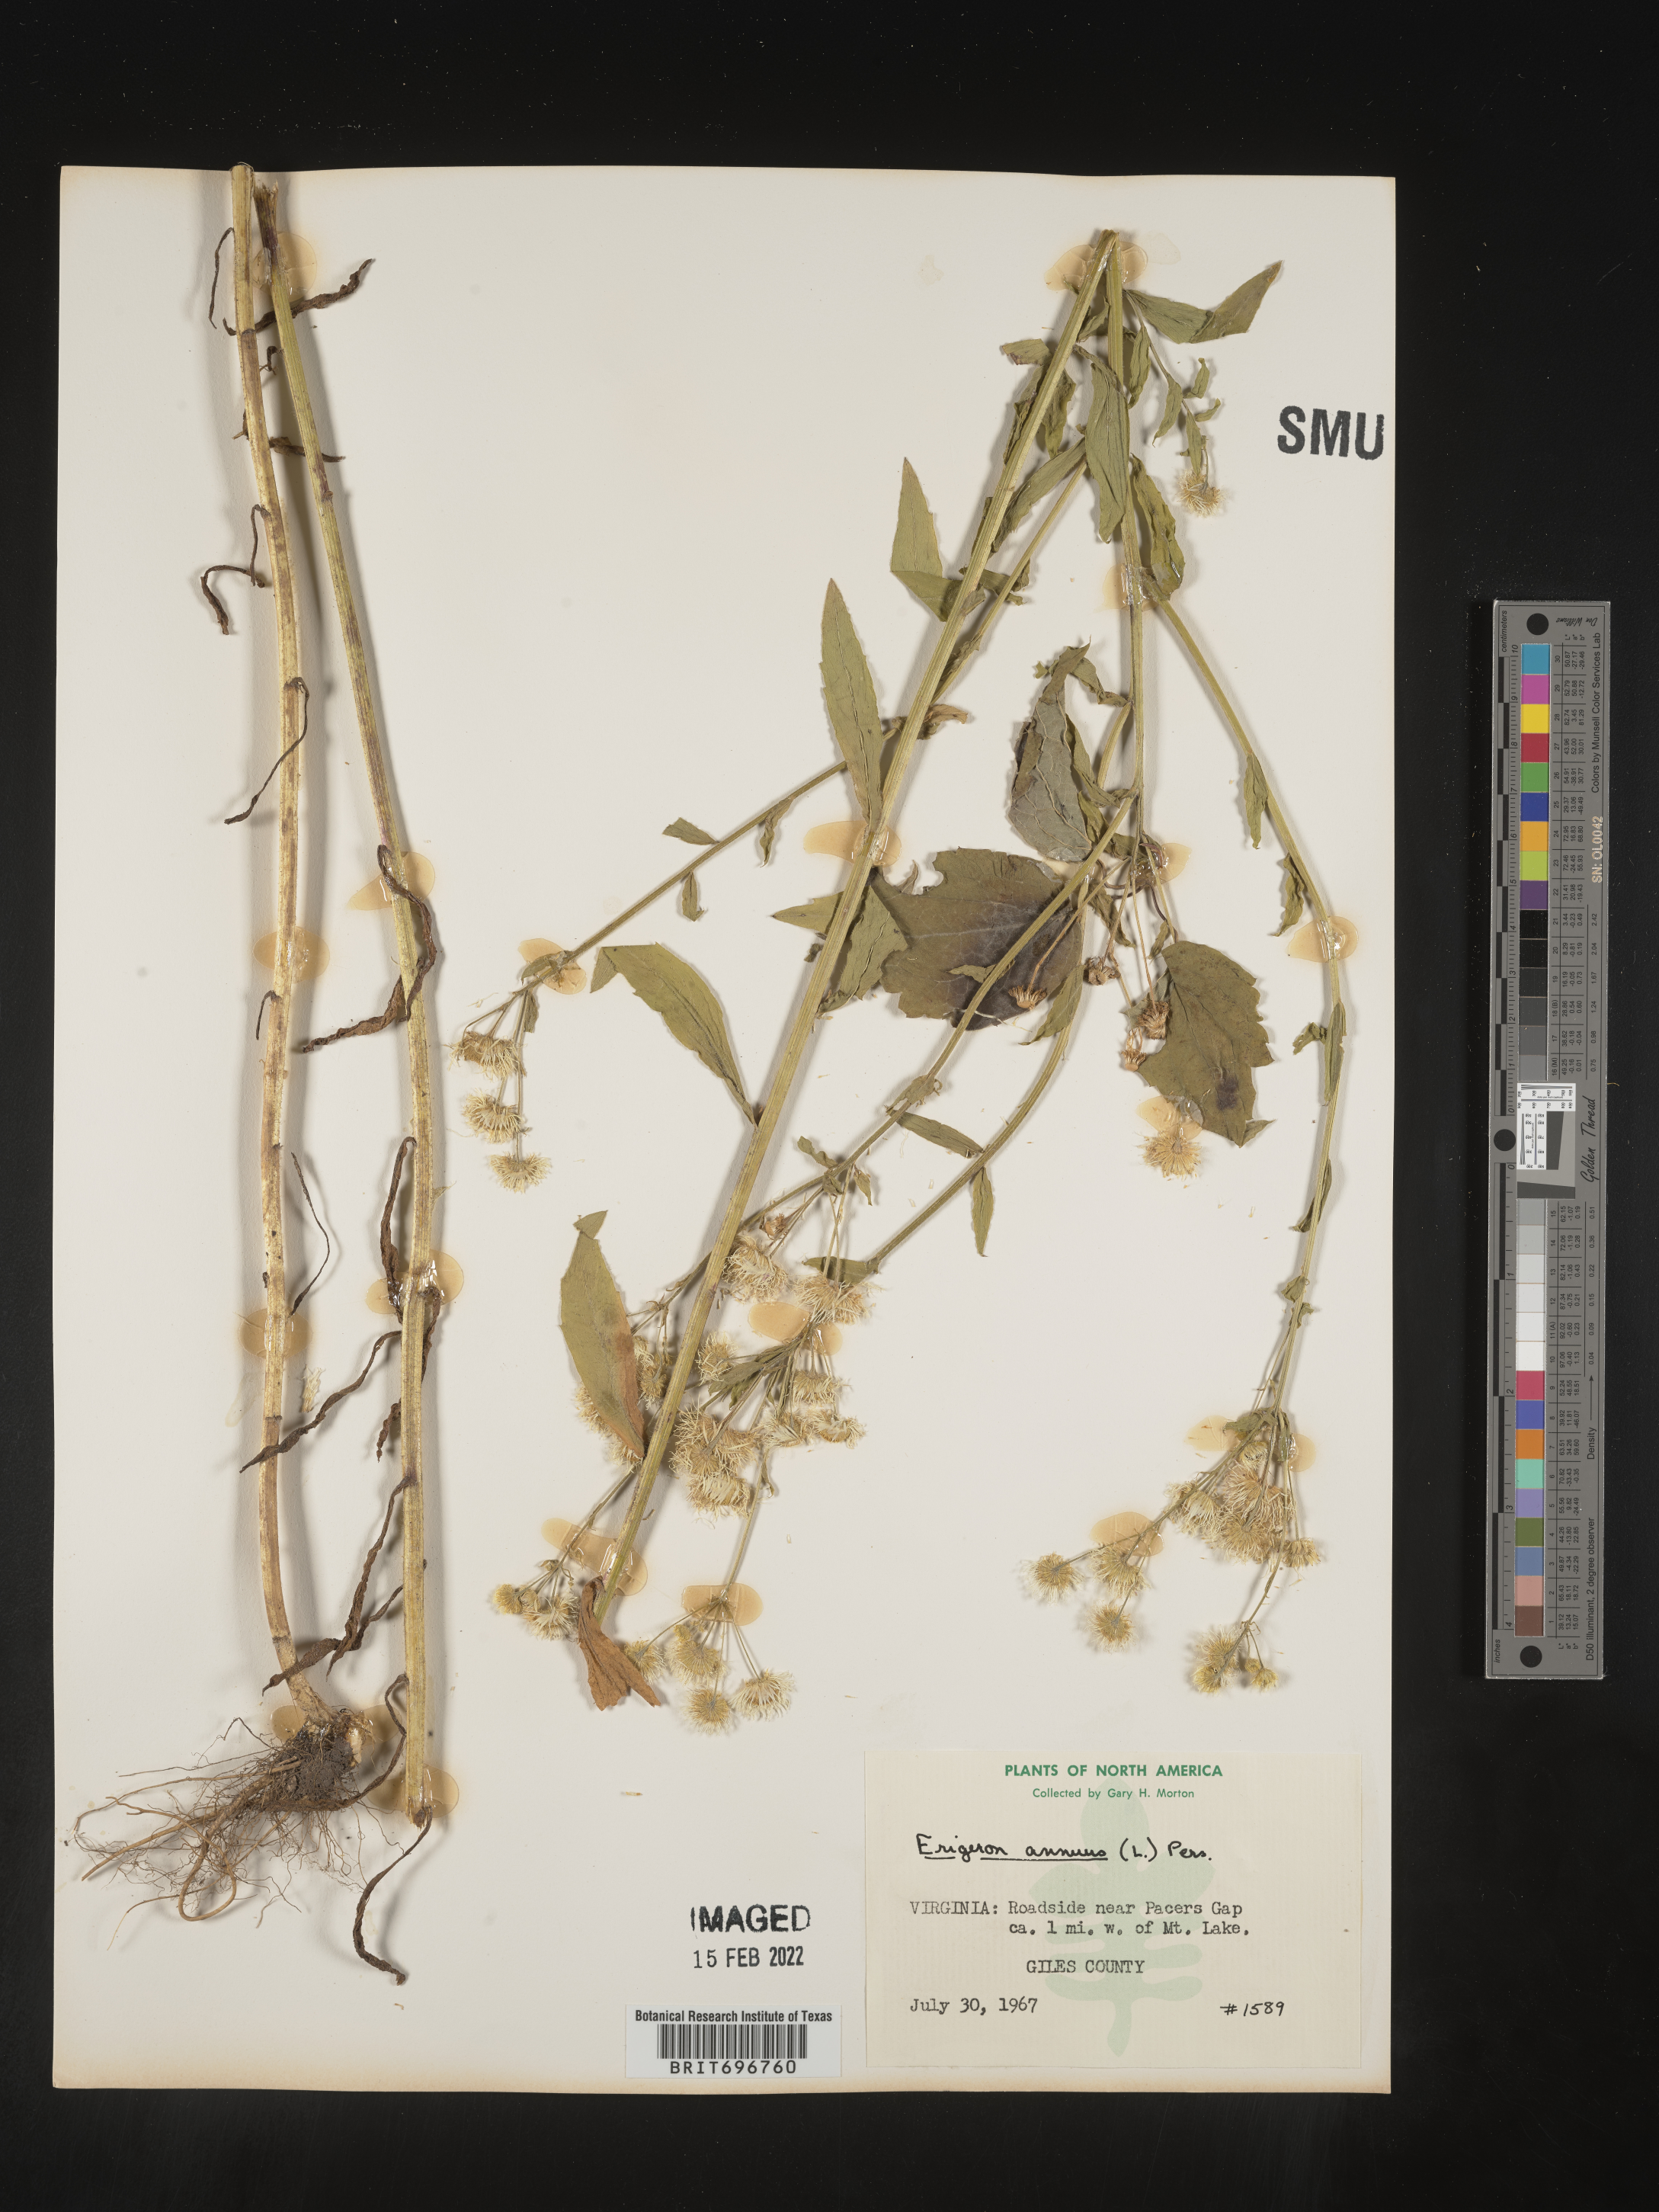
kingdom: Plantae
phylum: Tracheophyta
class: Magnoliopsida
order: Asterales
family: Asteraceae
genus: Erigeron
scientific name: Erigeron annuus
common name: Tall fleabane
